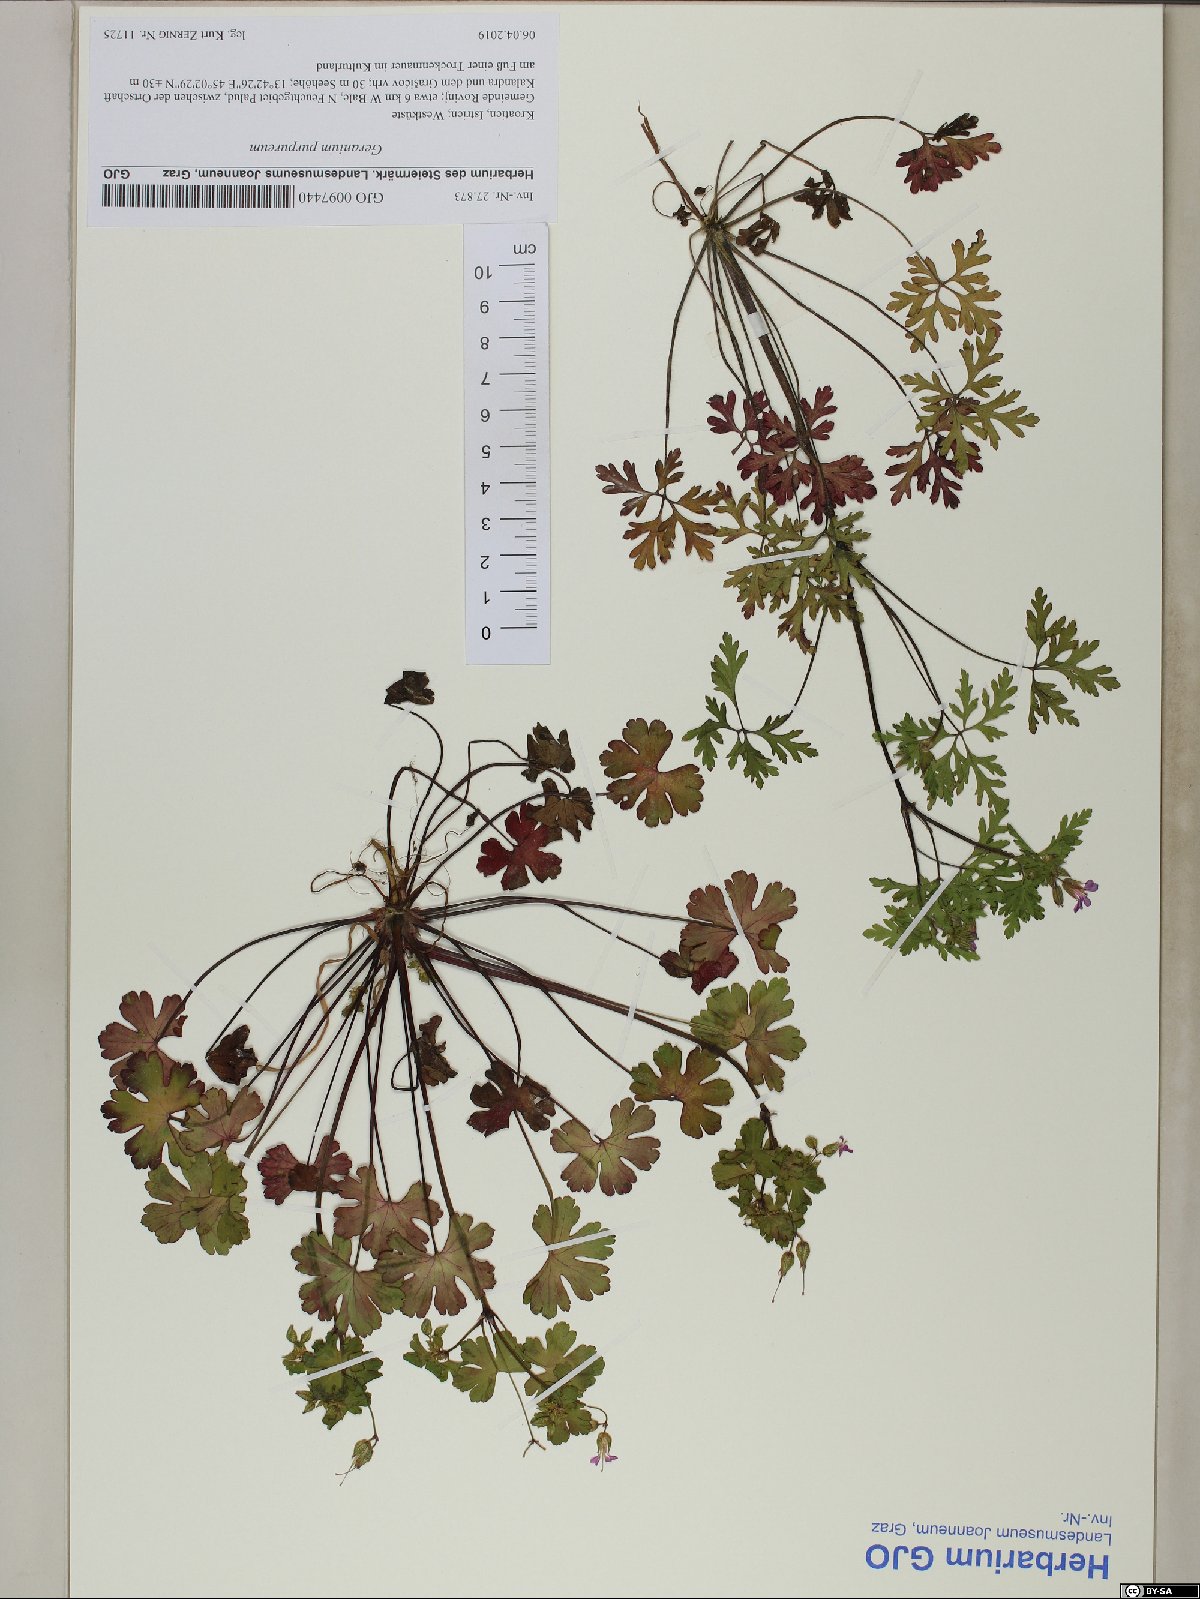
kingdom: Plantae
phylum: Tracheophyta
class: Magnoliopsida
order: Geraniales
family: Geraniaceae
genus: Geranium
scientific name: Geranium purpureum
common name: Little-robin
